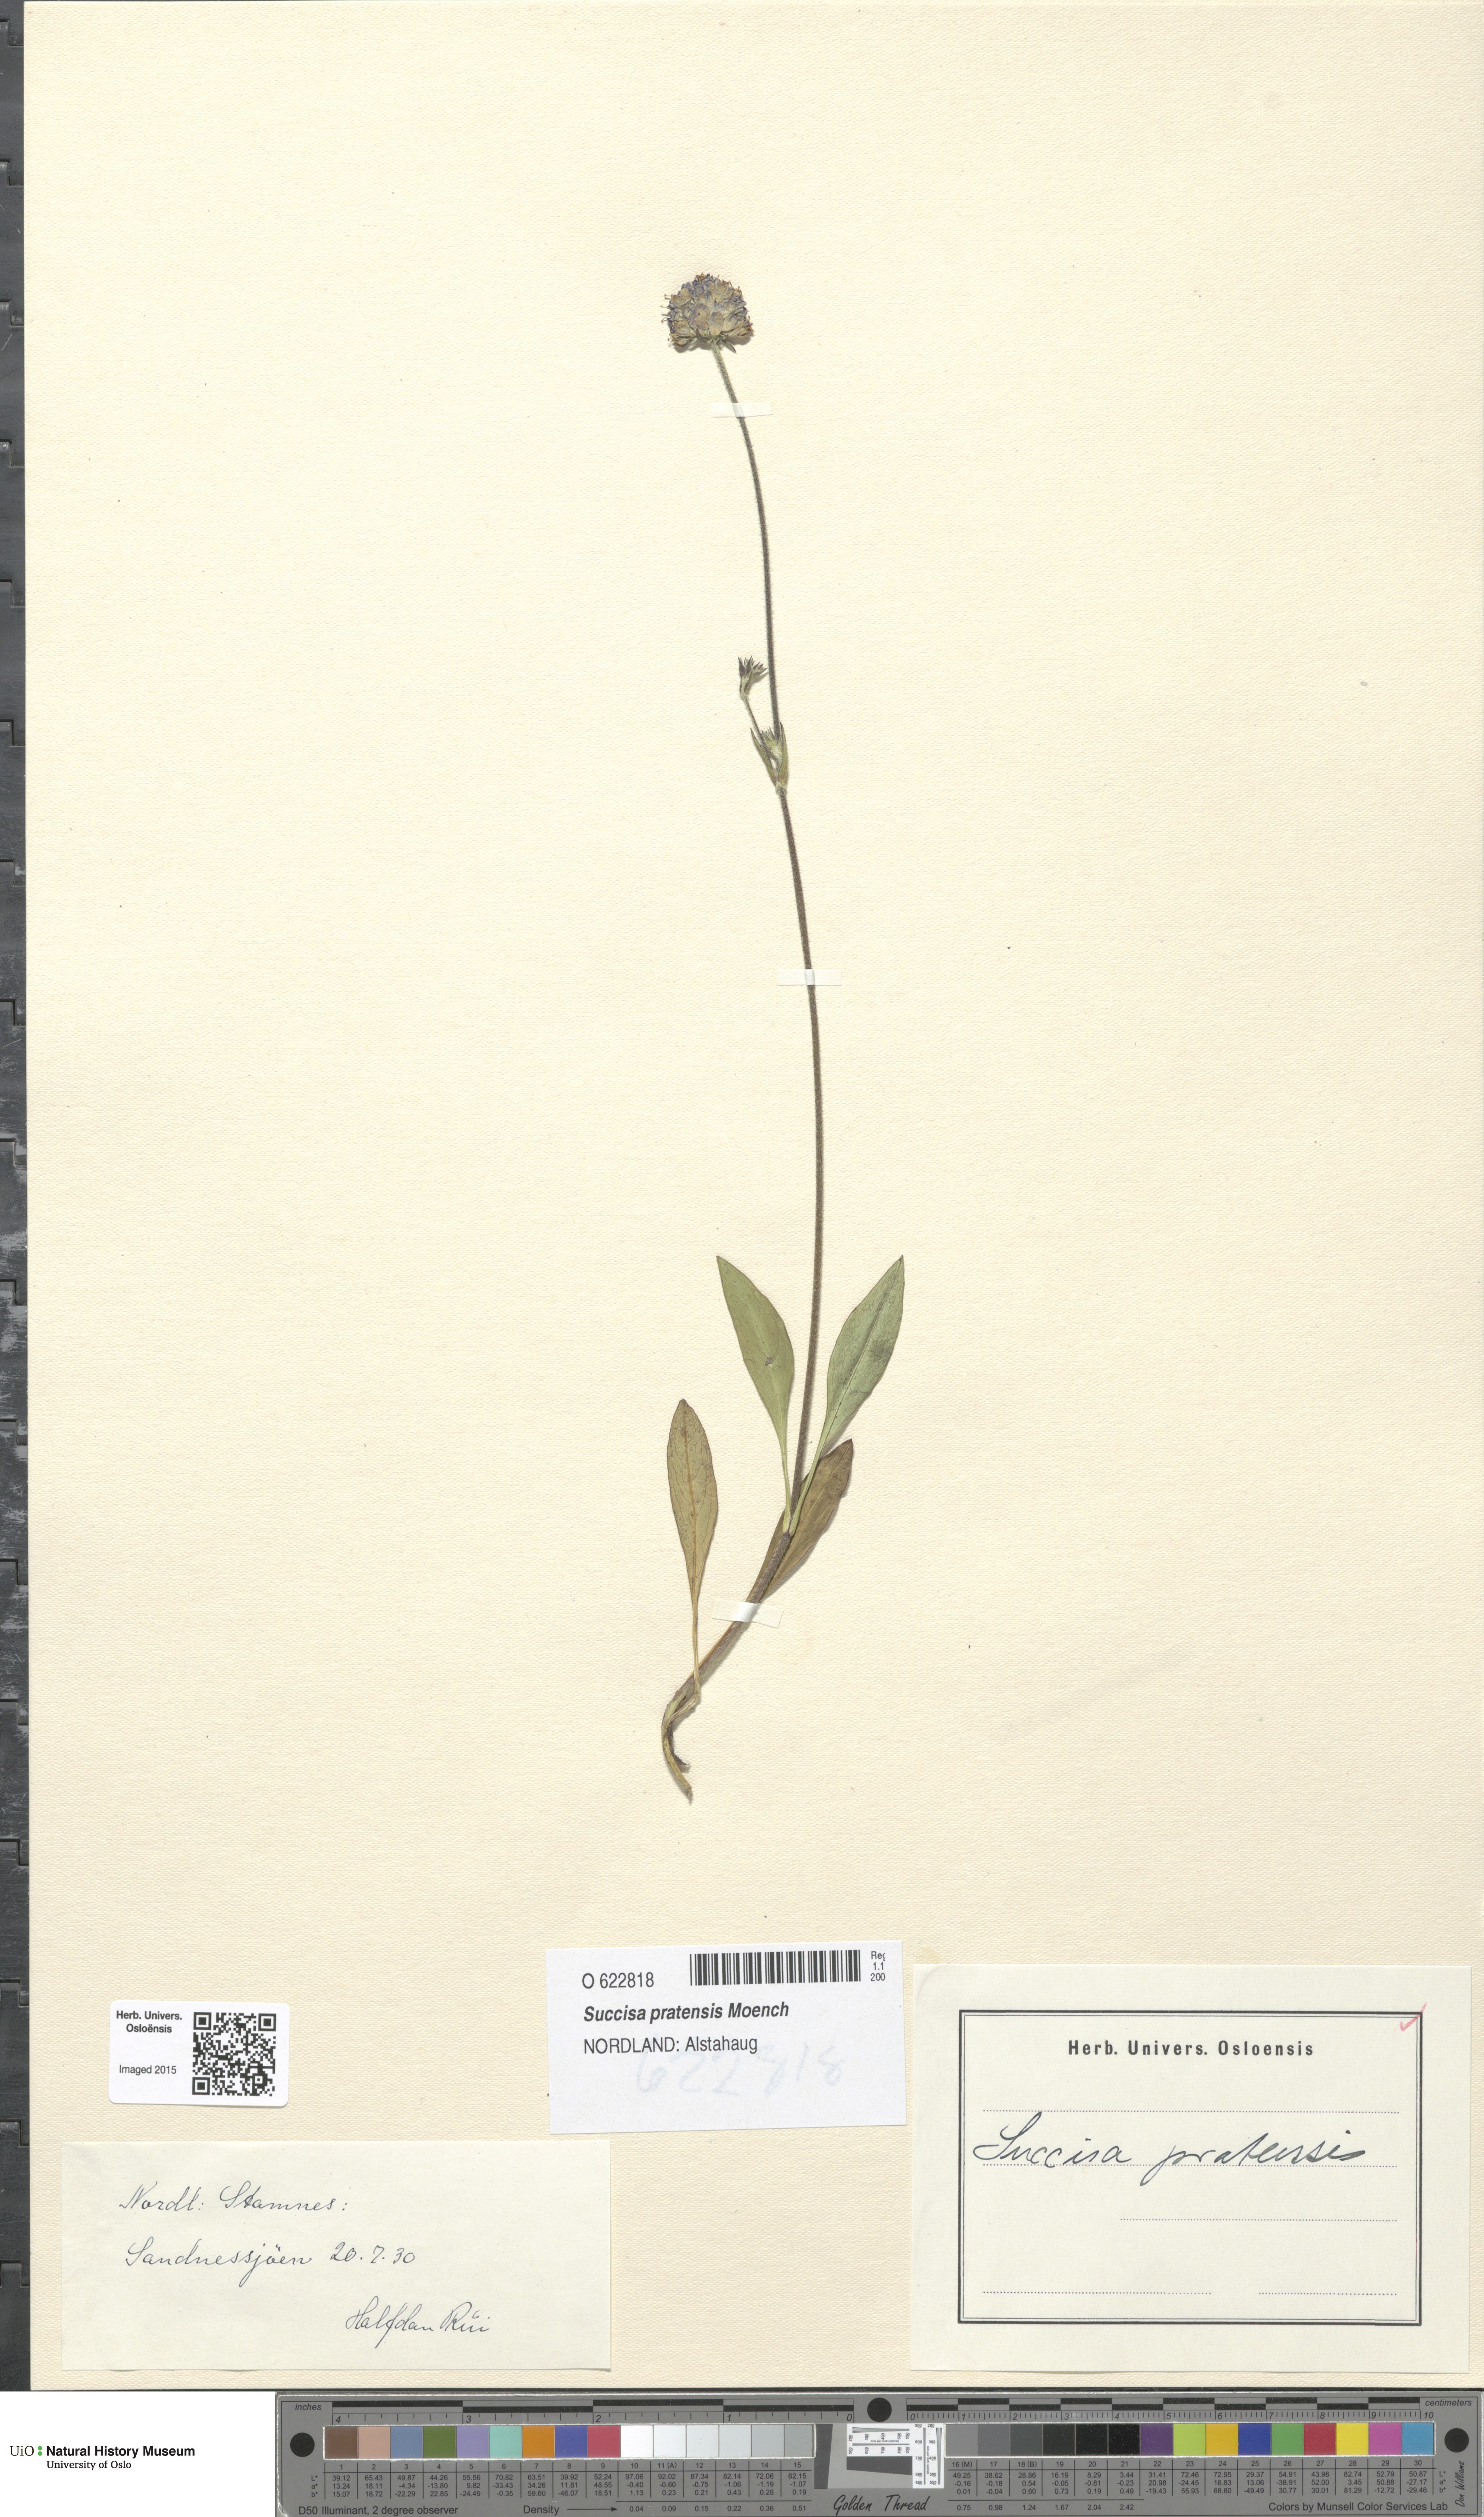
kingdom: Plantae
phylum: Tracheophyta
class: Magnoliopsida
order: Dipsacales
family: Caprifoliaceae
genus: Succisa
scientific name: Succisa pratensis
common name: Devil's-bit
